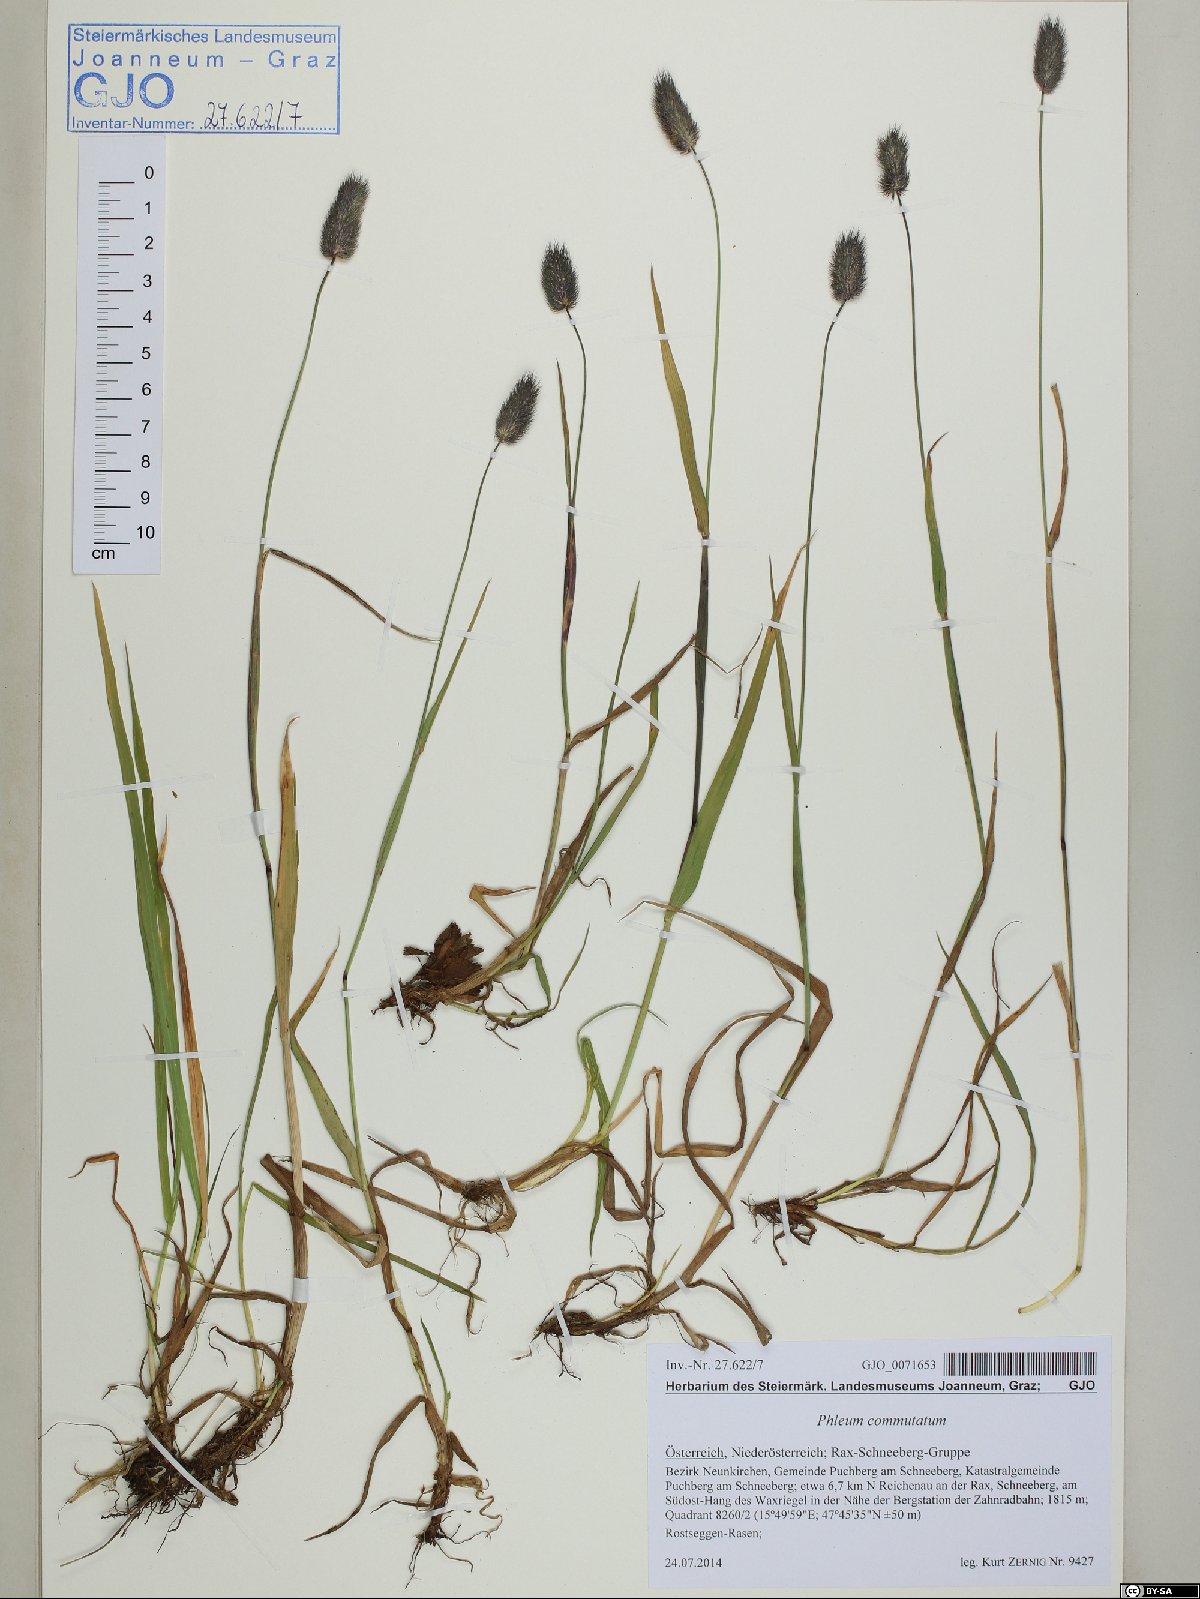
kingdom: Plantae
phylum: Tracheophyta
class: Liliopsida
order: Poales
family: Poaceae
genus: Phleum
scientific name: Phleum alpinum
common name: Alpine cat's-tail
